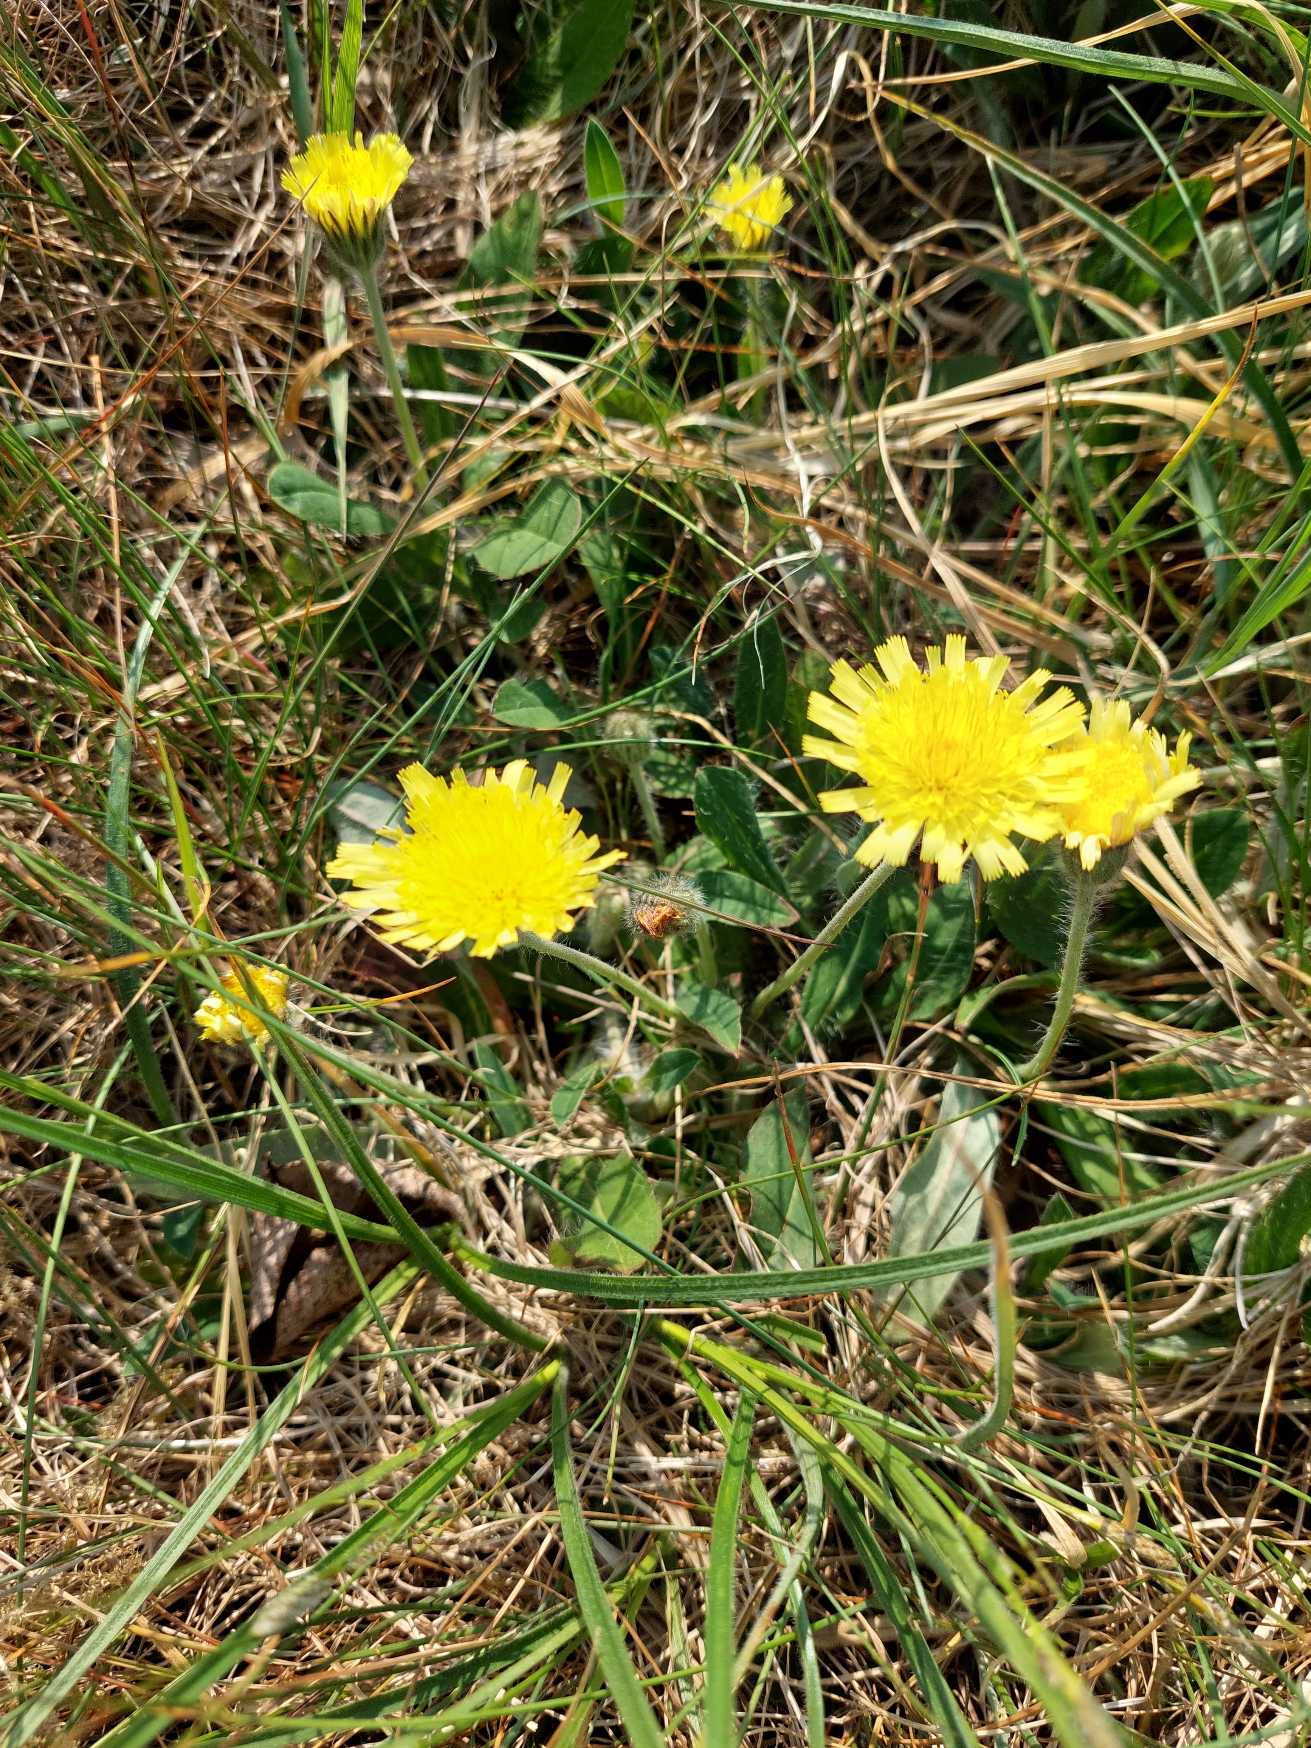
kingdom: Plantae
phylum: Tracheophyta
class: Magnoliopsida
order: Asterales
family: Asteraceae
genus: Pilosella
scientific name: Pilosella officinarum
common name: Håret høgeurt
